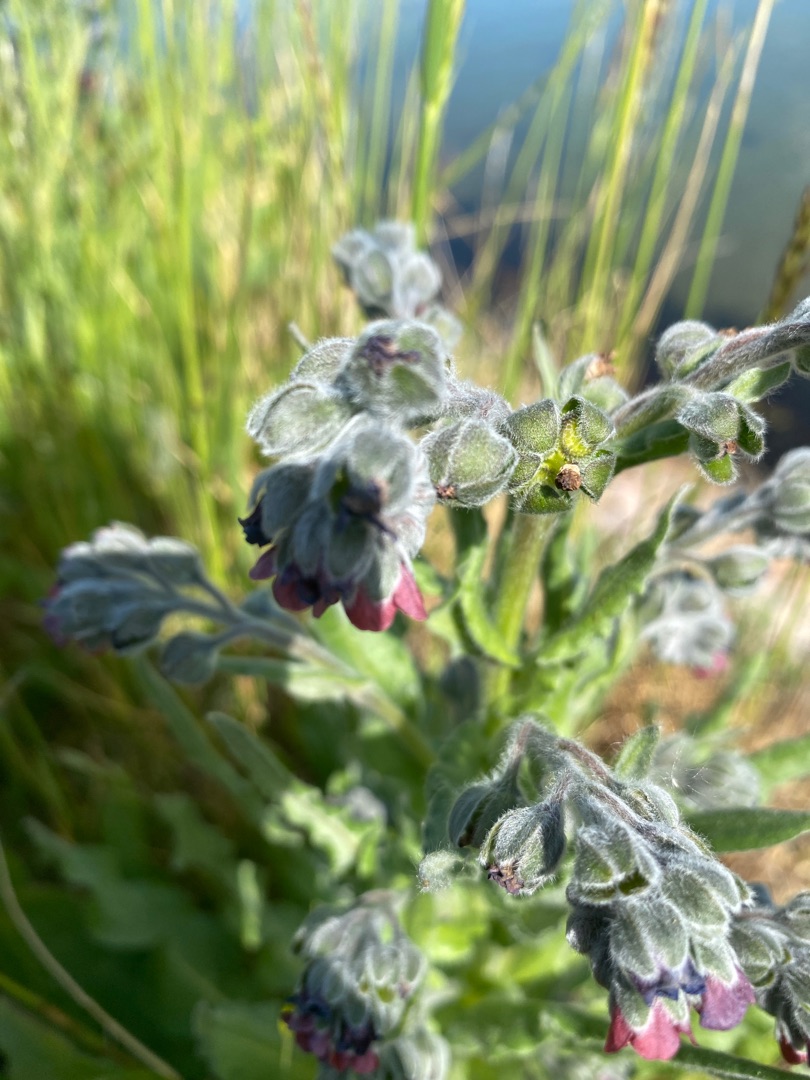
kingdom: Plantae
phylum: Tracheophyta
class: Magnoliopsida
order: Boraginales
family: Boraginaceae
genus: Cynoglossum
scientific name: Cynoglossum officinale
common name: Hundetunge
